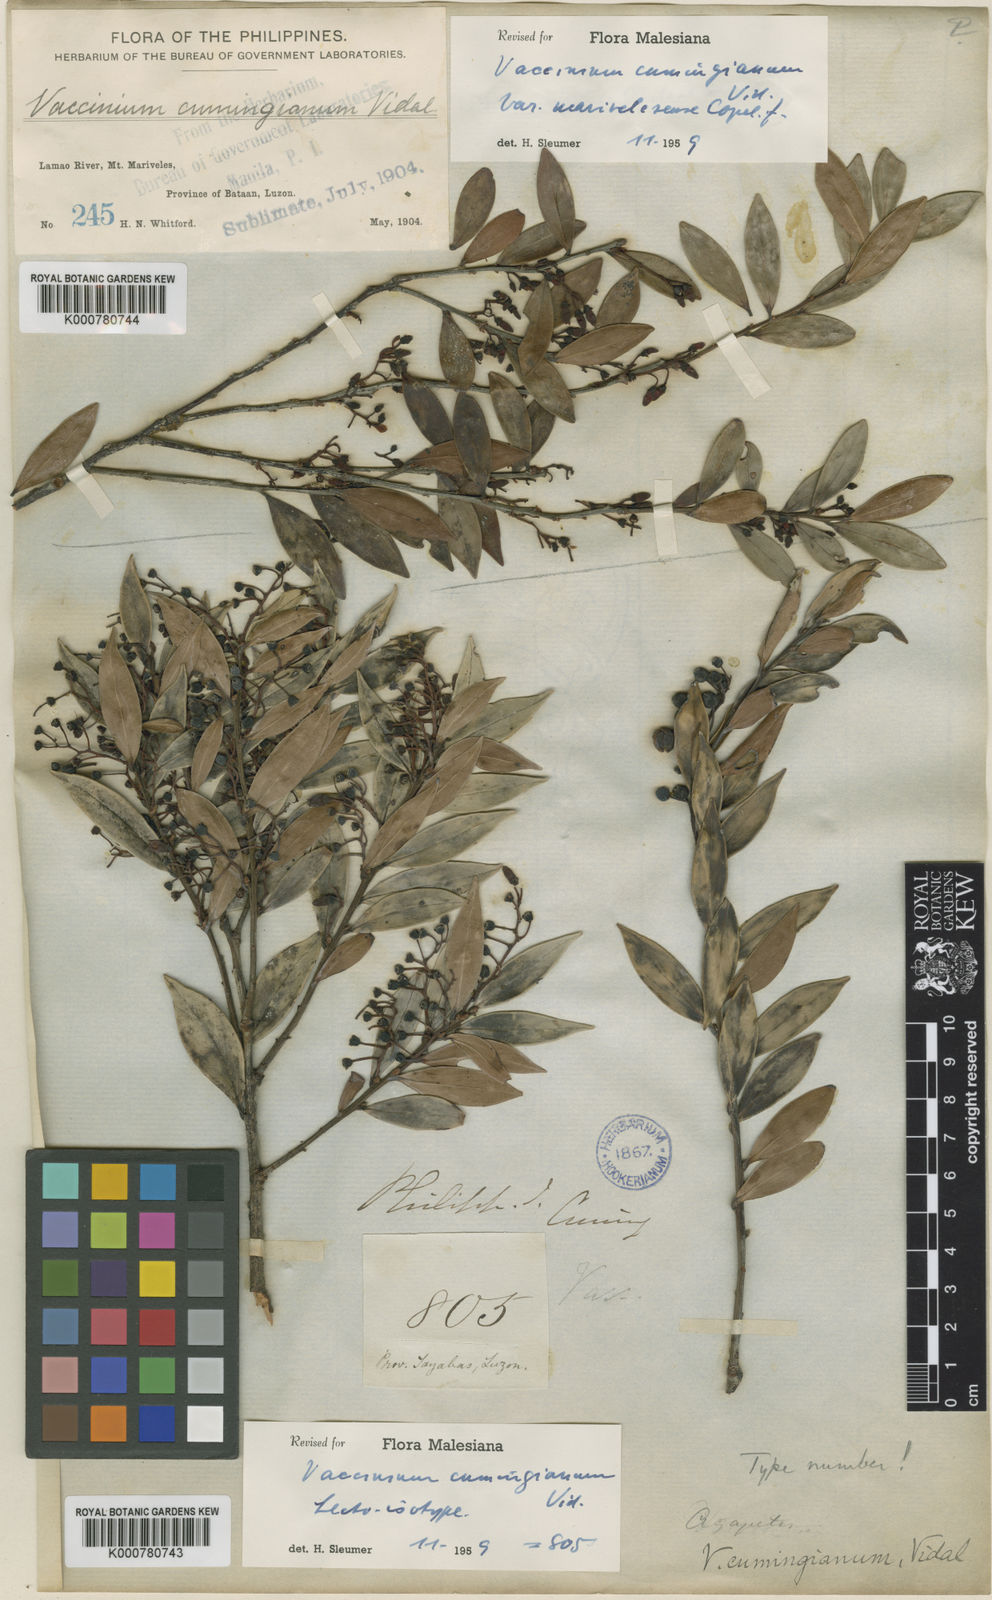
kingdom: Plantae
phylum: Tracheophyta
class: Magnoliopsida
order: Ericales
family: Ericaceae
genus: Vaccinium
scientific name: Vaccinium cumingianum
